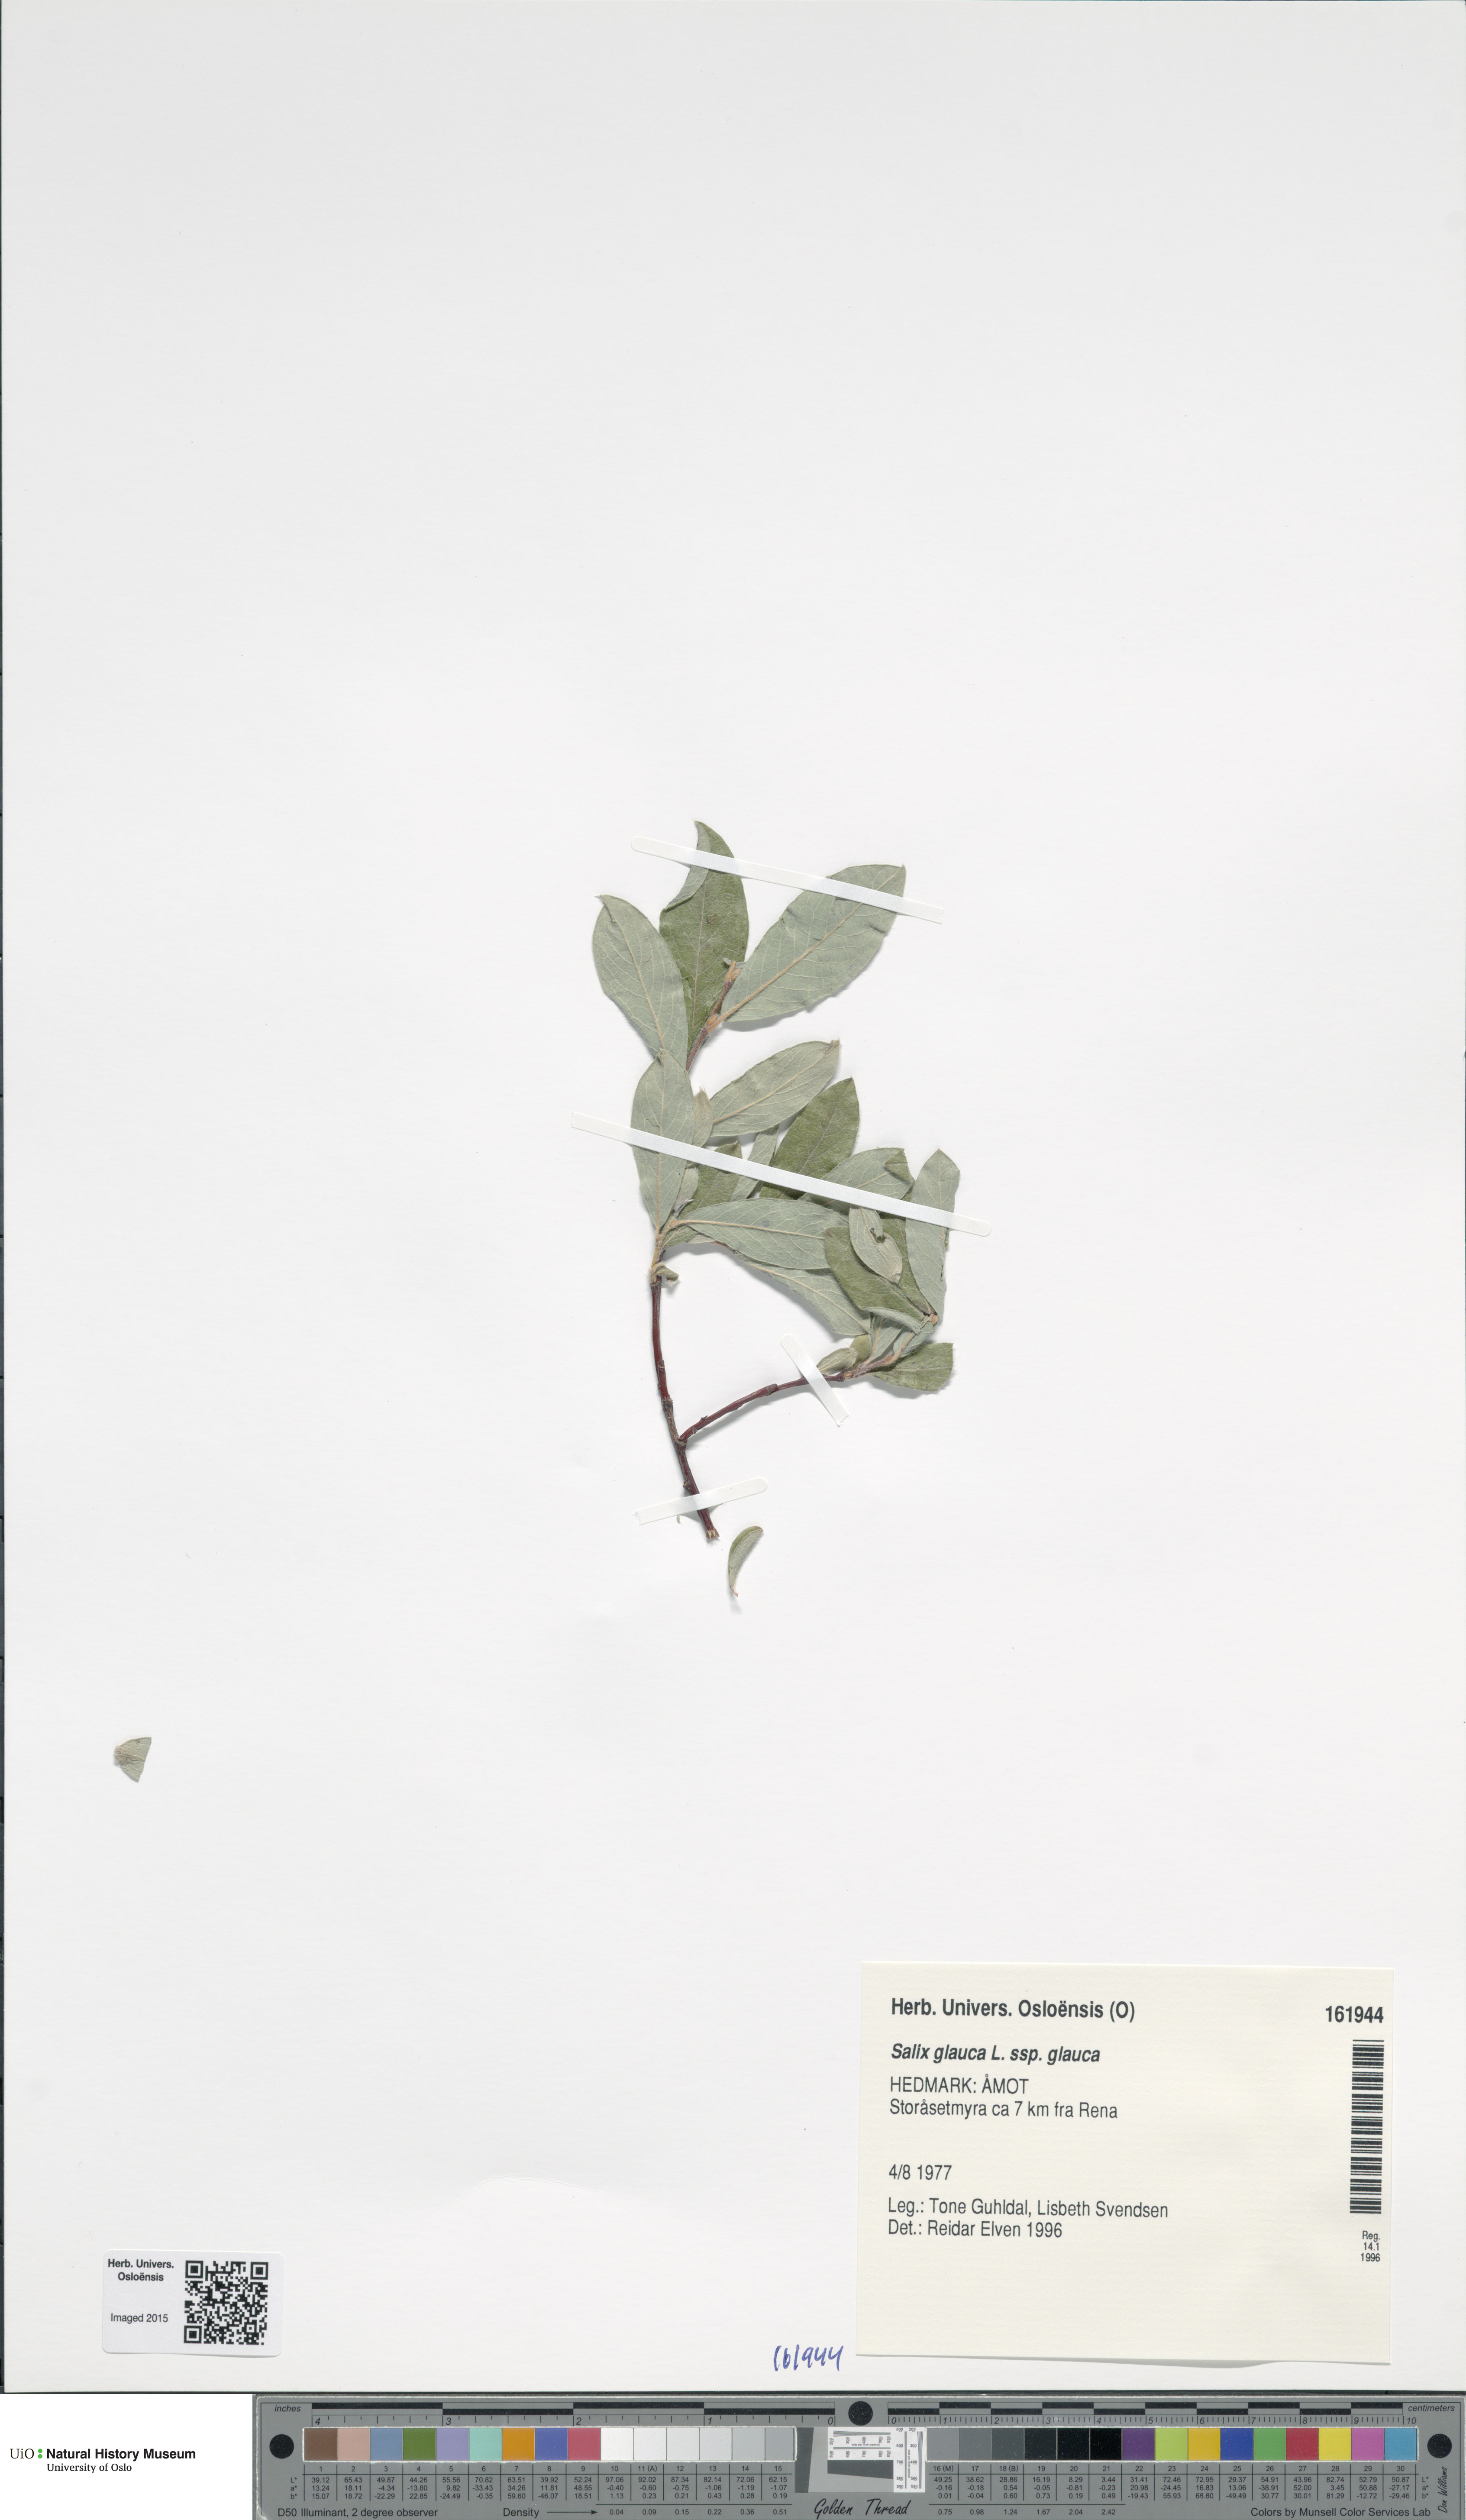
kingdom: Plantae
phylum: Tracheophyta
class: Magnoliopsida
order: Malpighiales
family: Salicaceae
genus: Salix
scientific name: Salix glauca
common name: Glaucous willow
